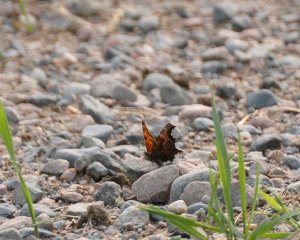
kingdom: Animalia
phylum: Arthropoda
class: Insecta
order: Lepidoptera
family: Nymphalidae
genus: Polygonia
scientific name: Polygonia progne
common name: Gray Comma
